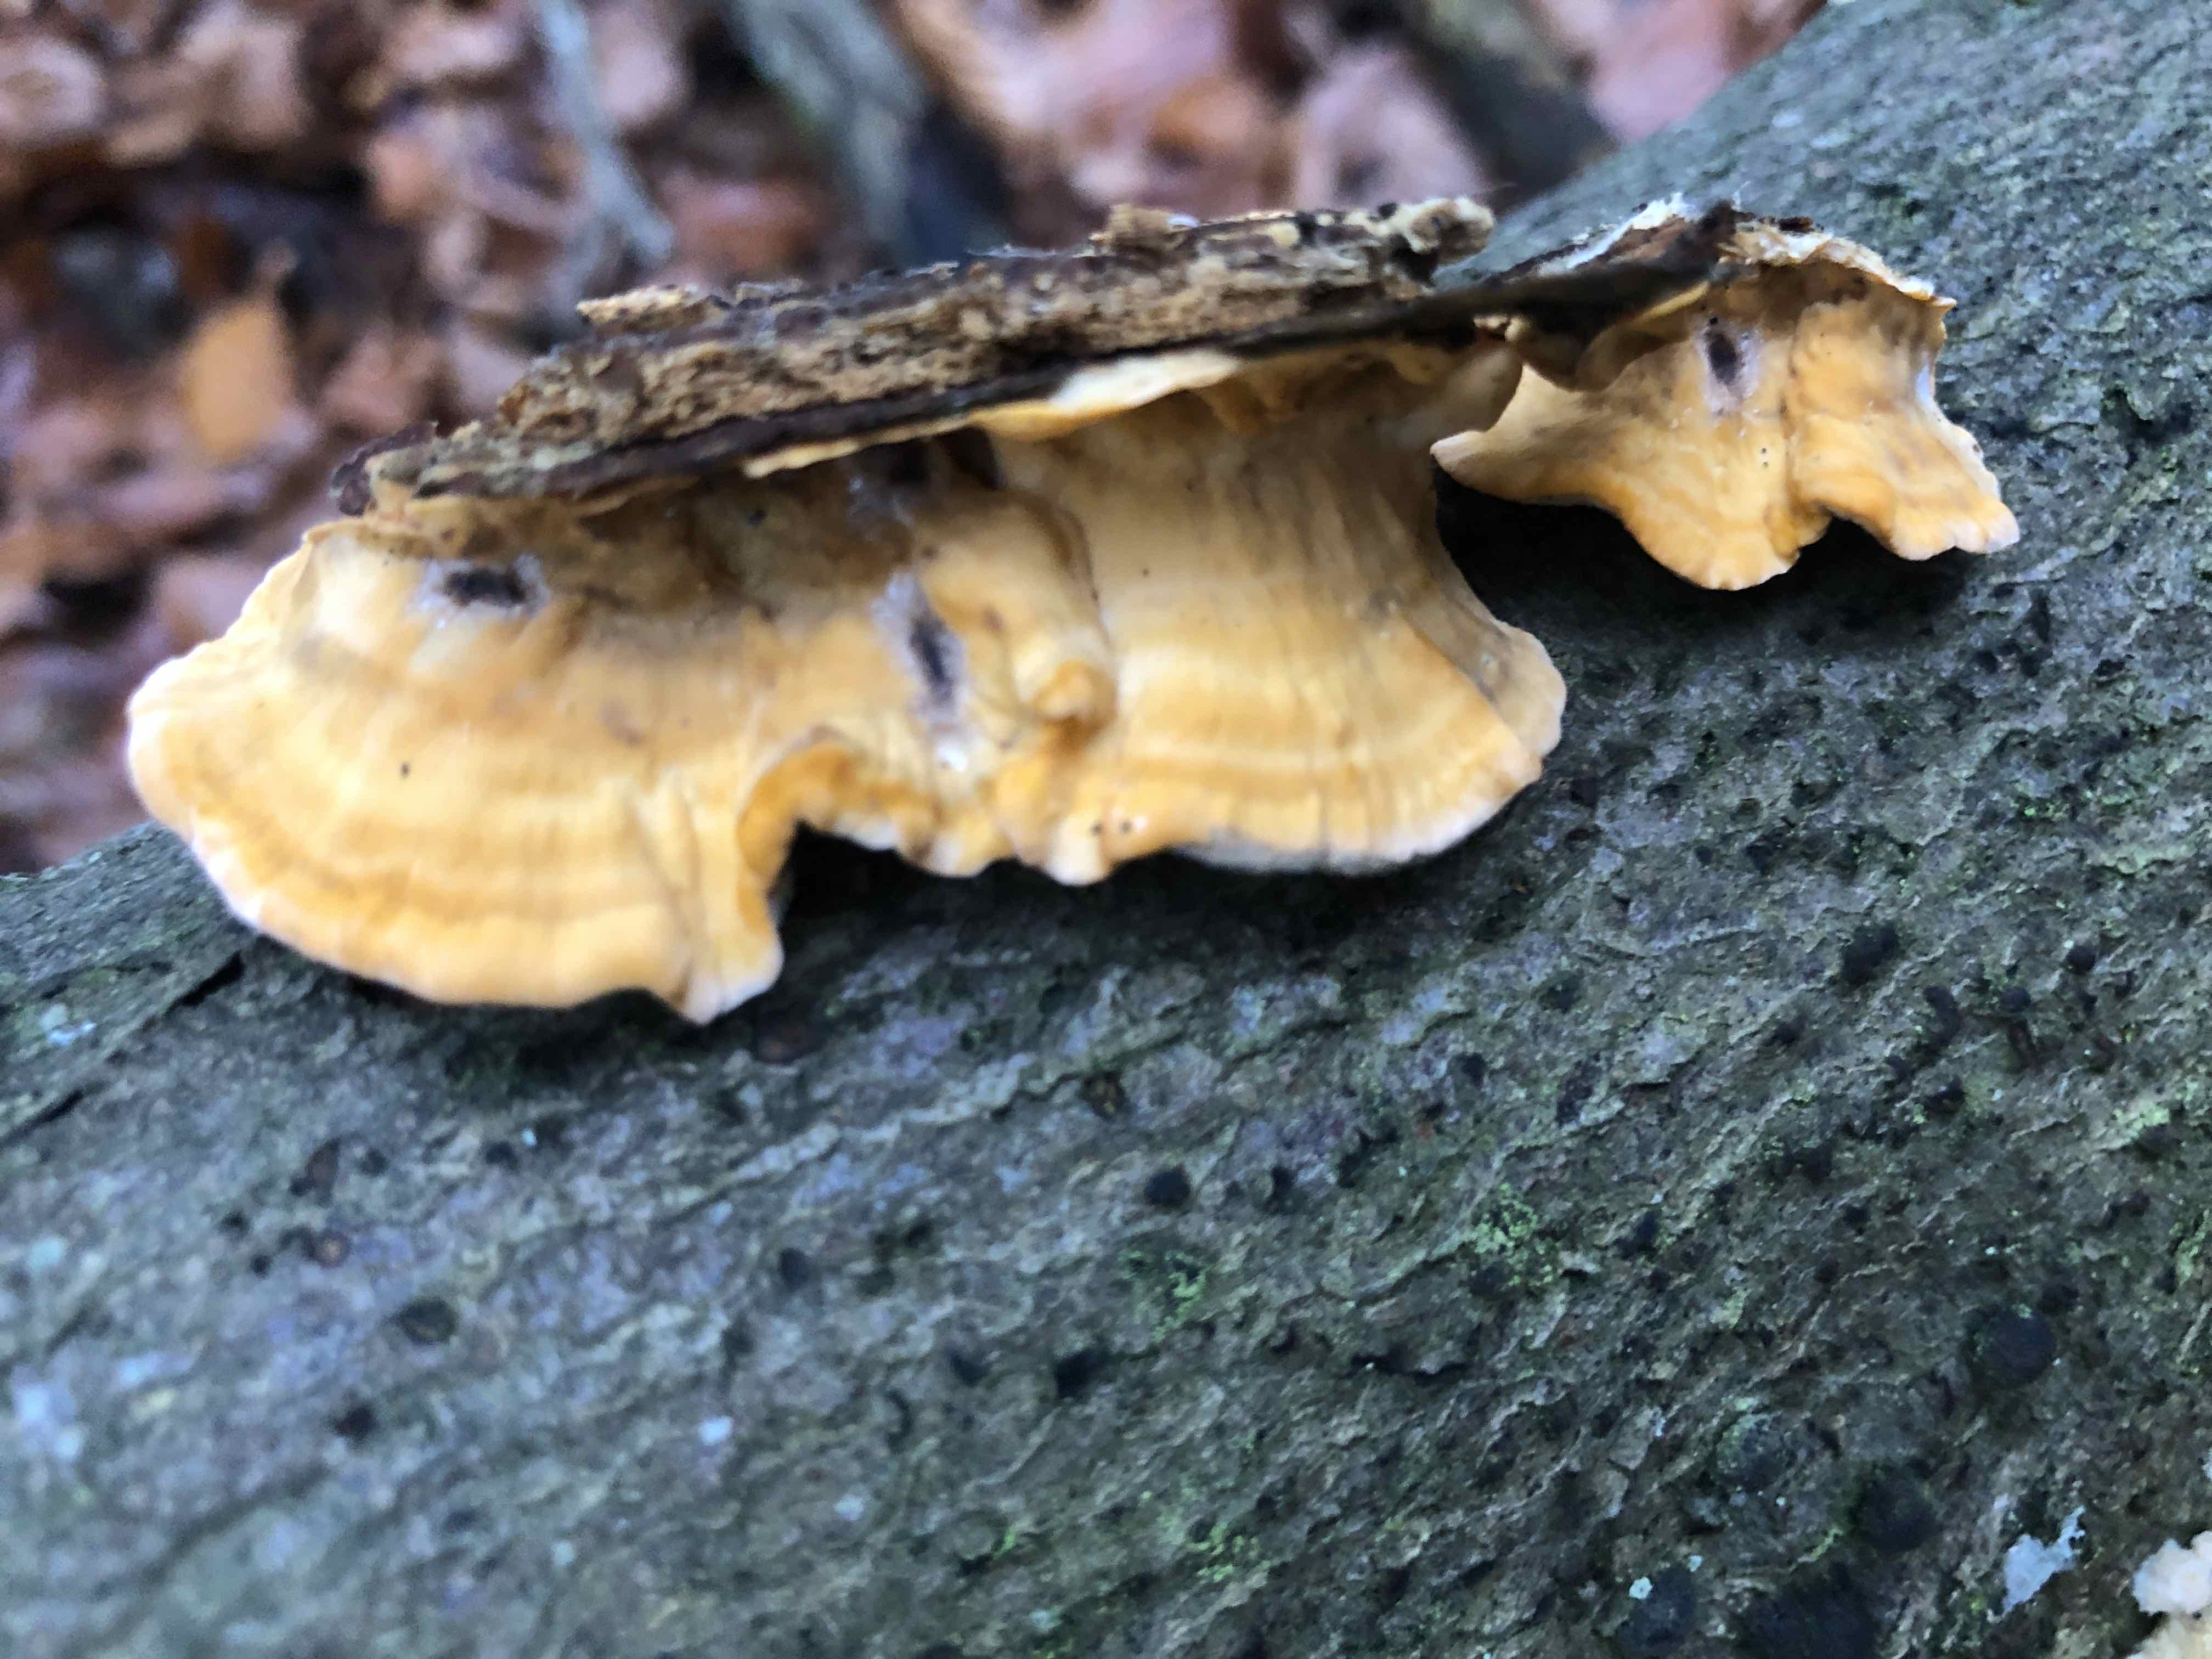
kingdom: Fungi
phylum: Basidiomycota
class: Agaricomycetes
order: Russulales
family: Stereaceae
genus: Stereum
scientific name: Stereum hirsutum
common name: håret lædersvamp
